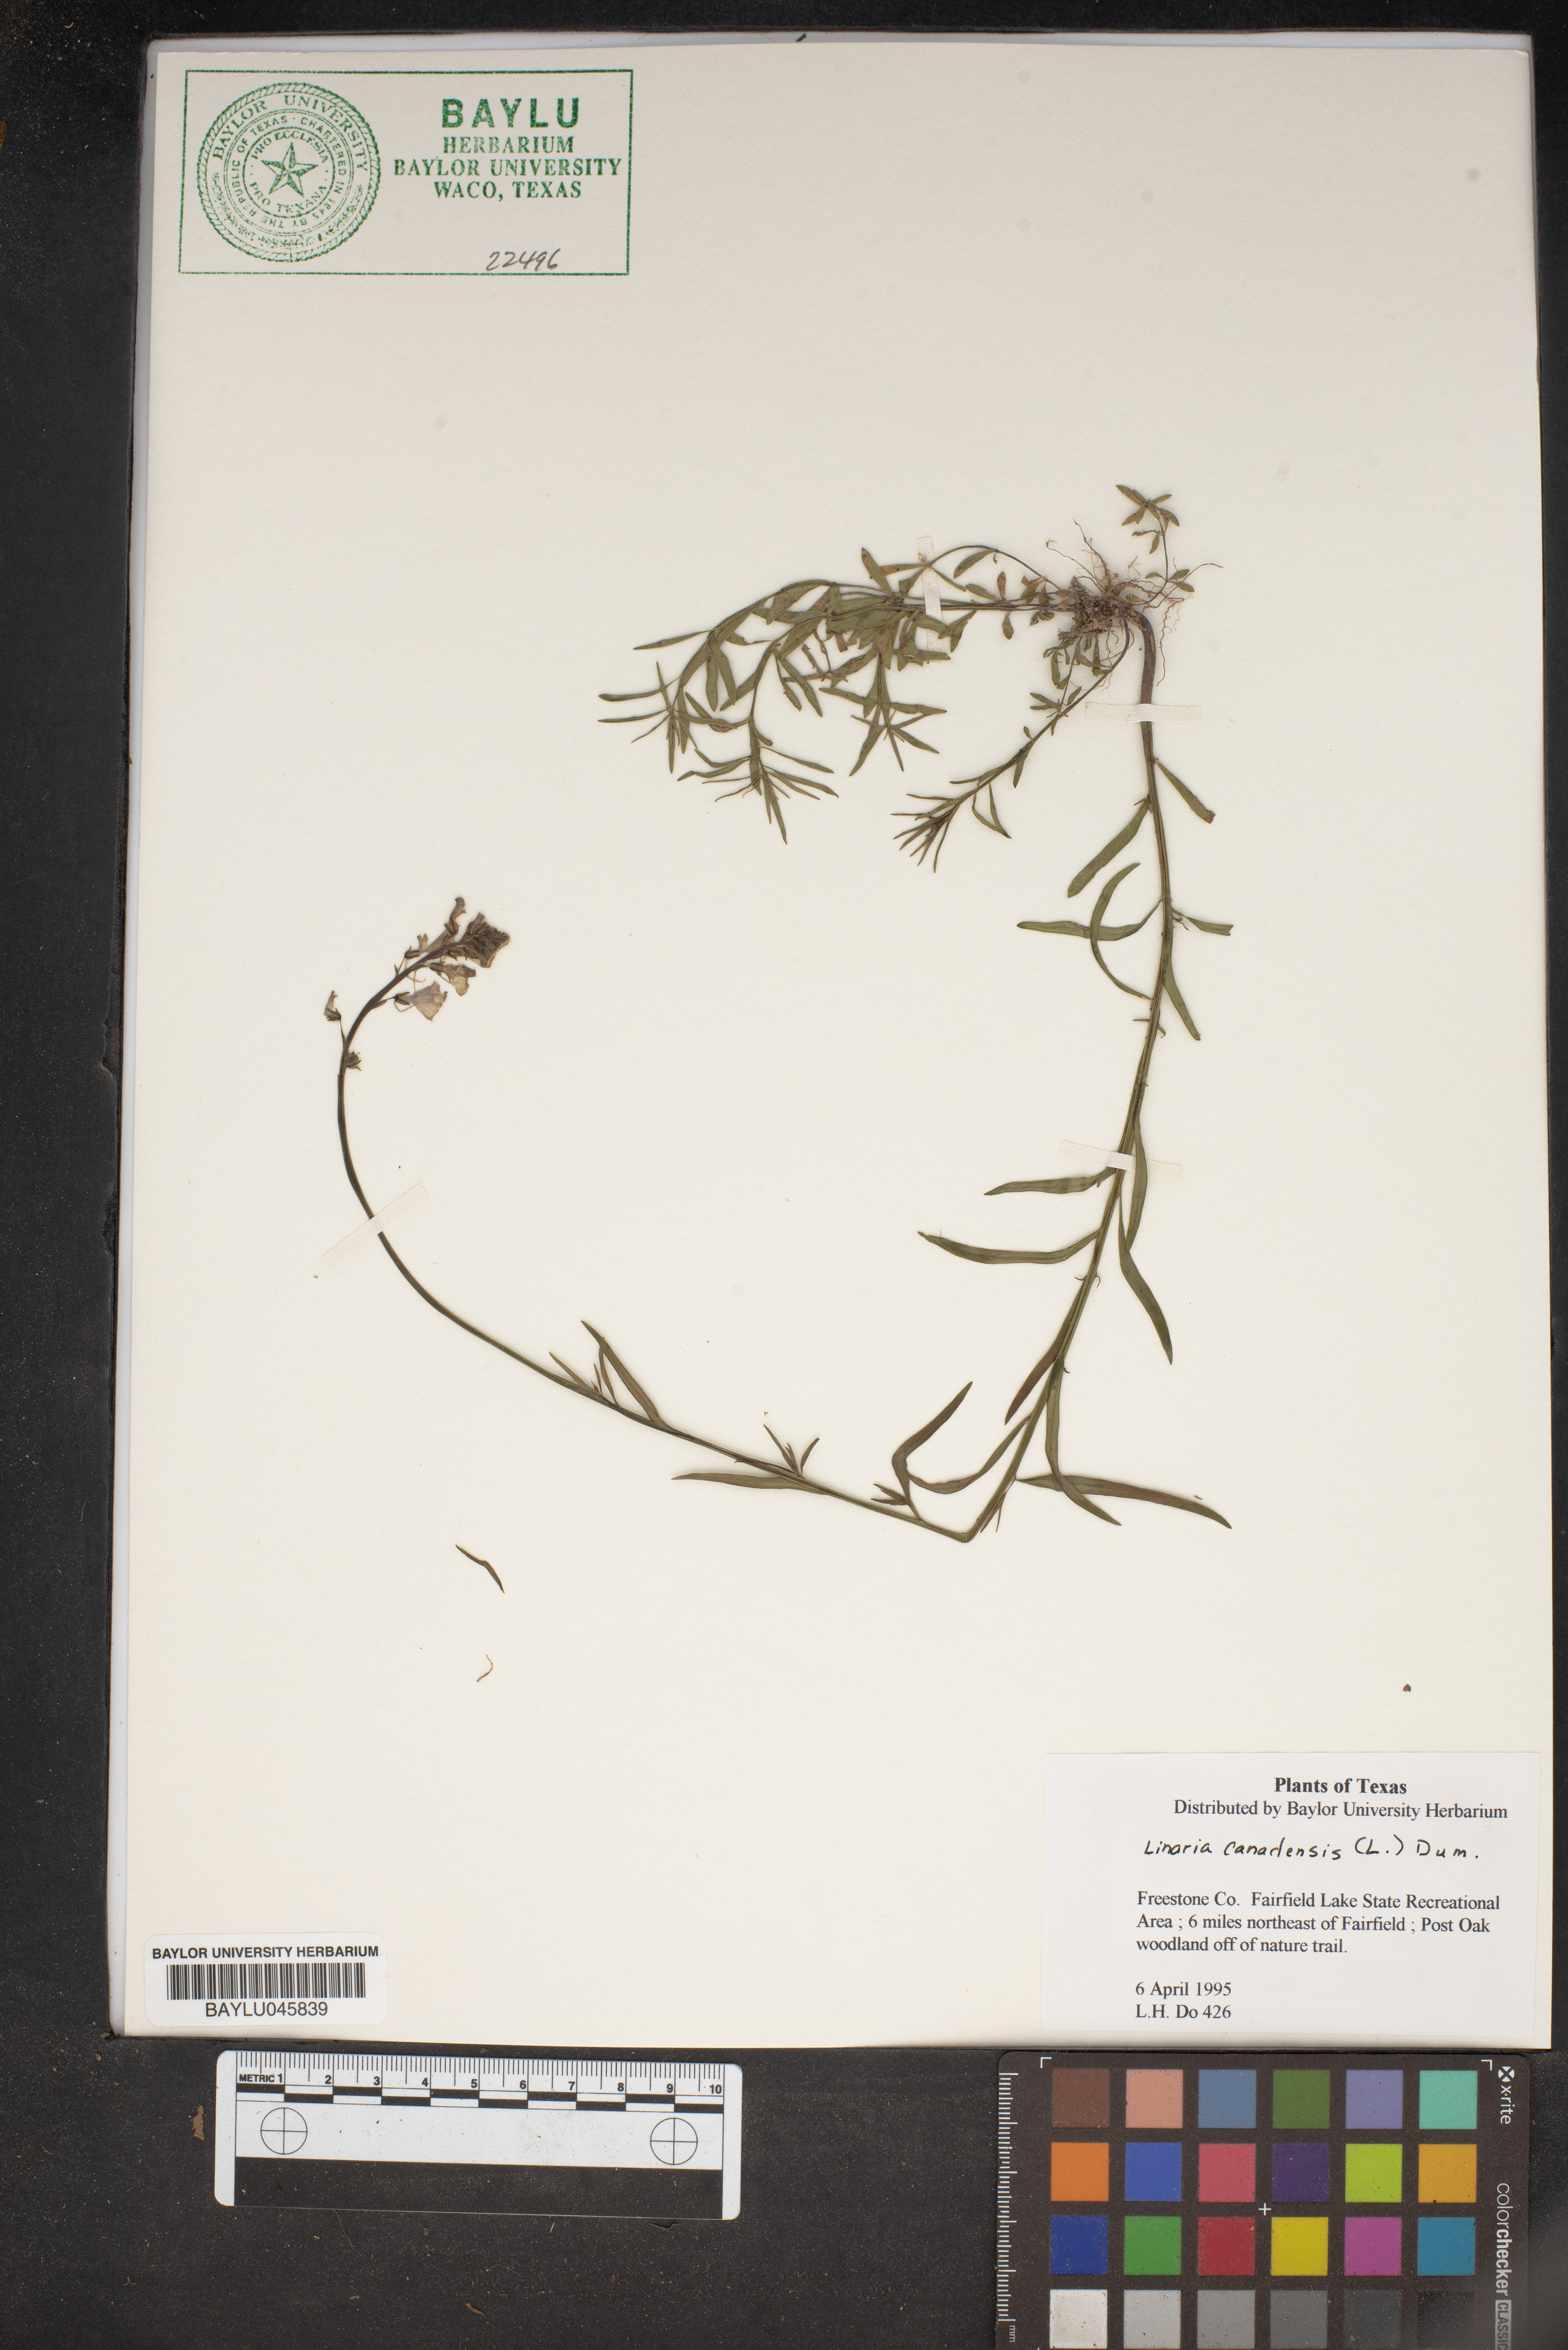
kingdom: Plantae
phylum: Tracheophyta
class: Magnoliopsida
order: Lamiales
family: Plantaginaceae
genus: Nuttallanthus
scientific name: Nuttallanthus canadensis
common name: Blue toadflax
